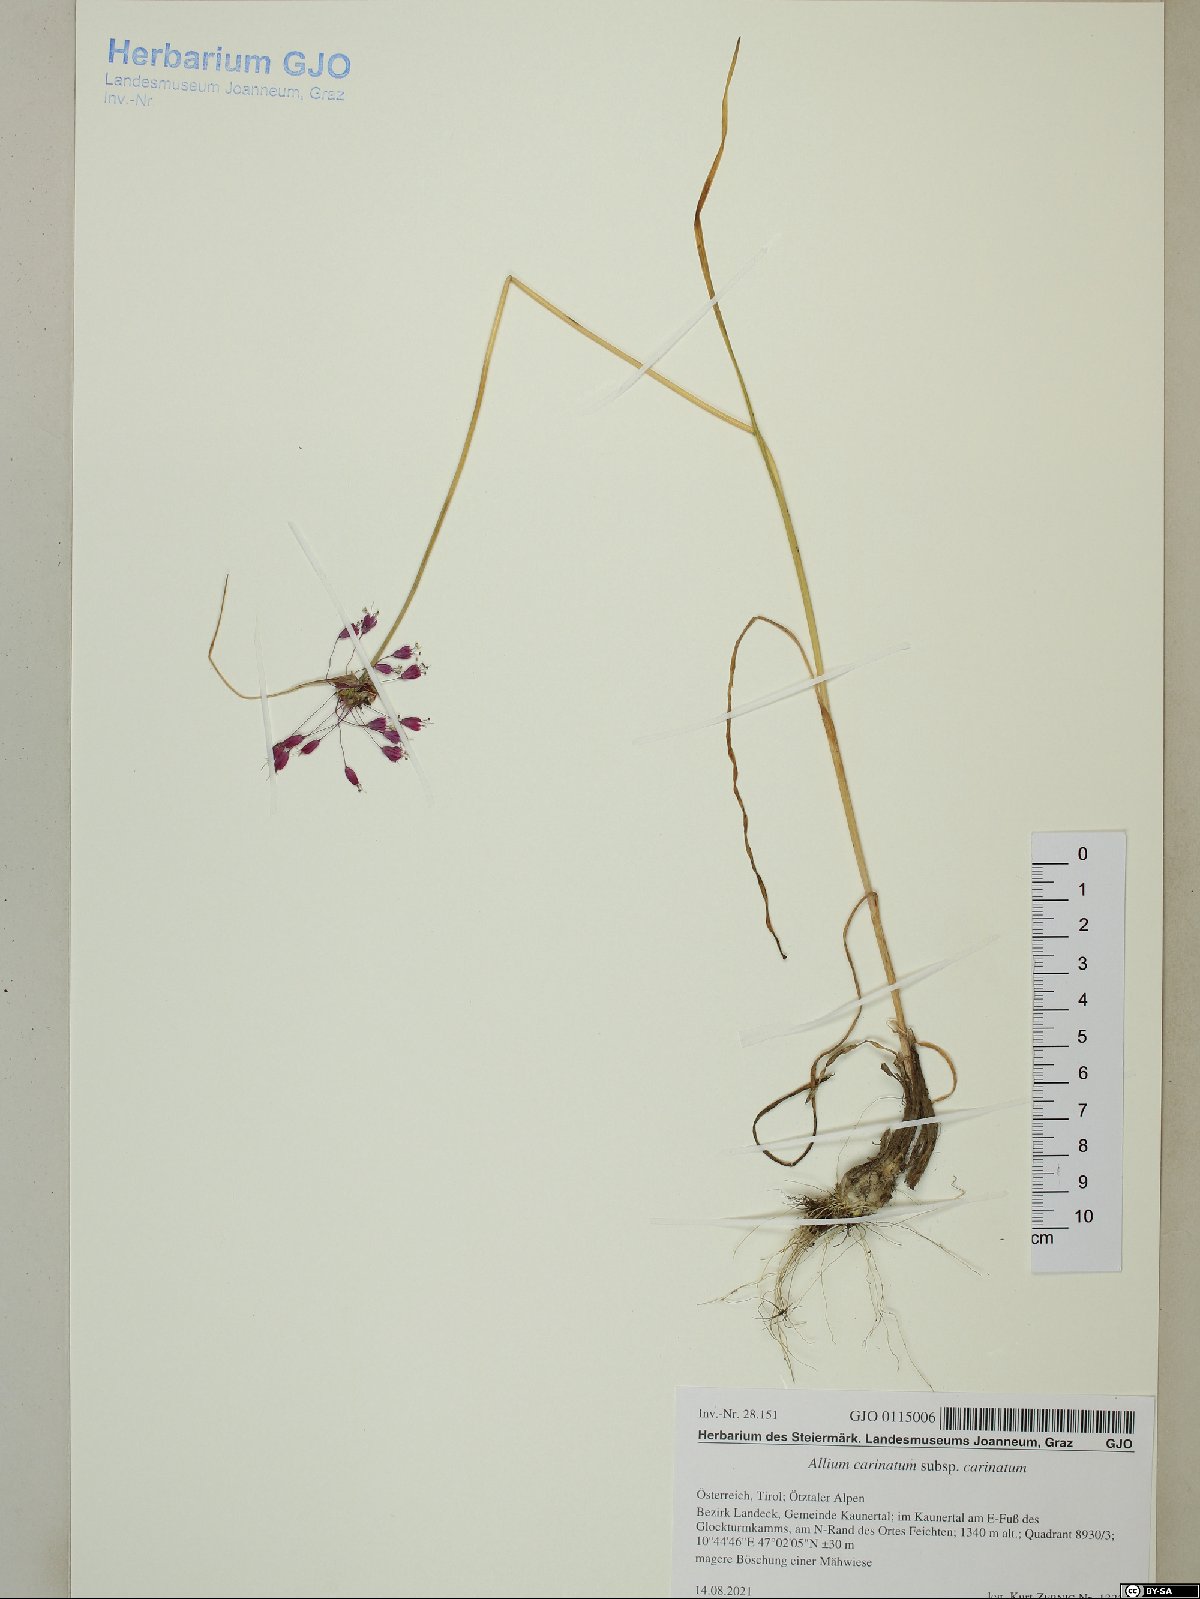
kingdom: Plantae
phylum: Tracheophyta
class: Liliopsida
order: Asparagales
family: Amaryllidaceae
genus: Allium
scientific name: Allium carinatum
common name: Keeled garlic
